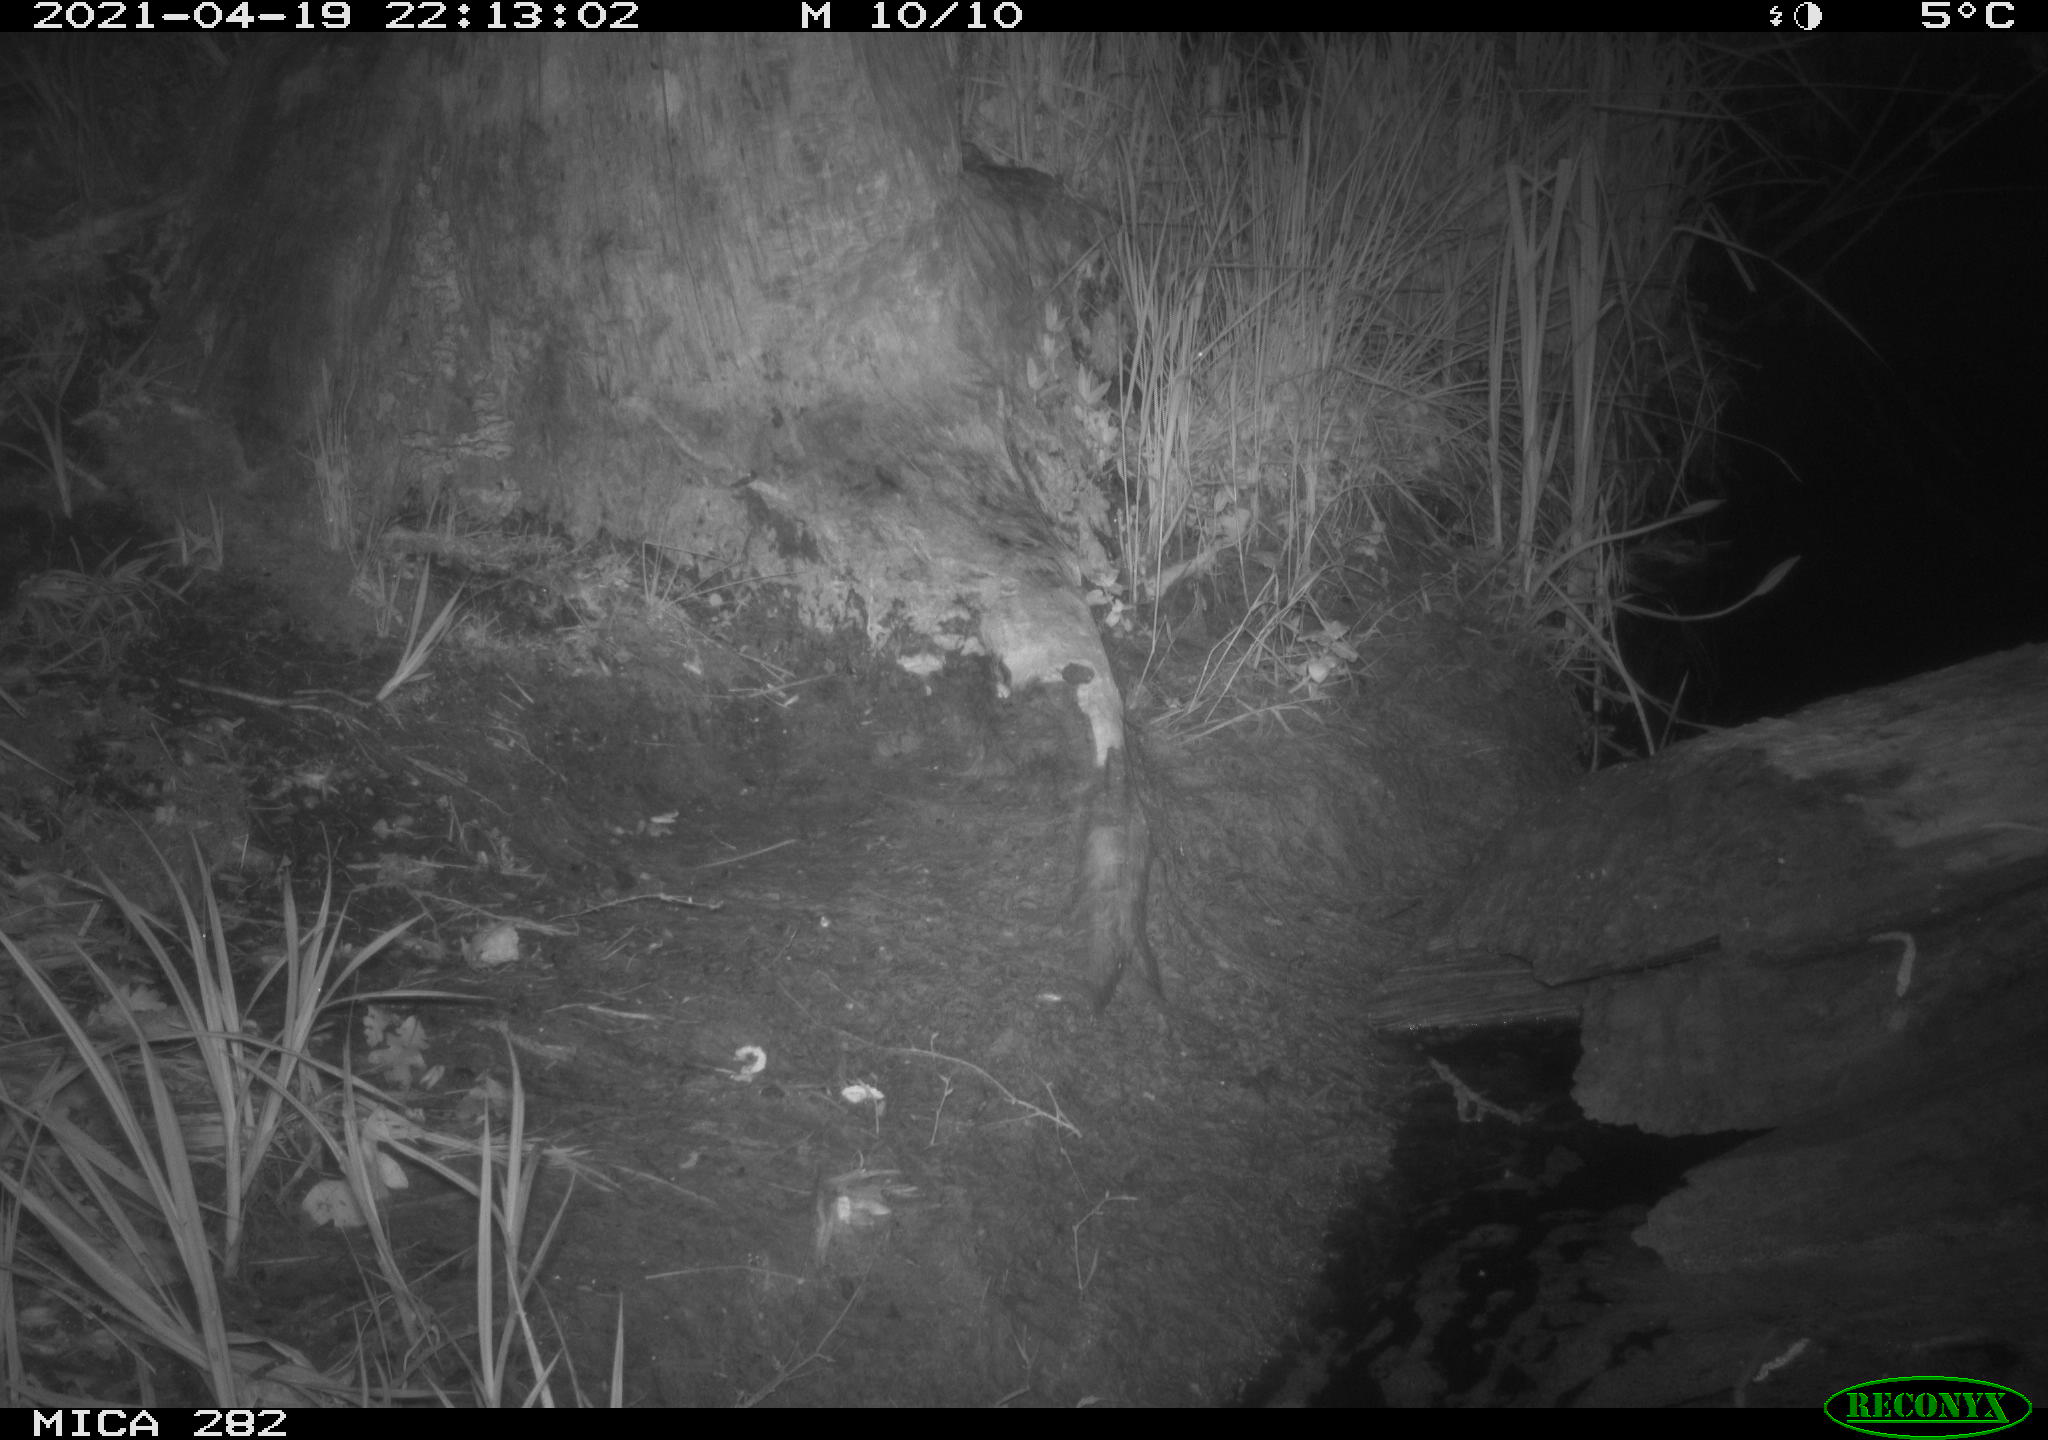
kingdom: Animalia
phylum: Chordata
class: Mammalia
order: Carnivora
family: Canidae
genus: Vulpes
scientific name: Vulpes vulpes
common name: Red fox
